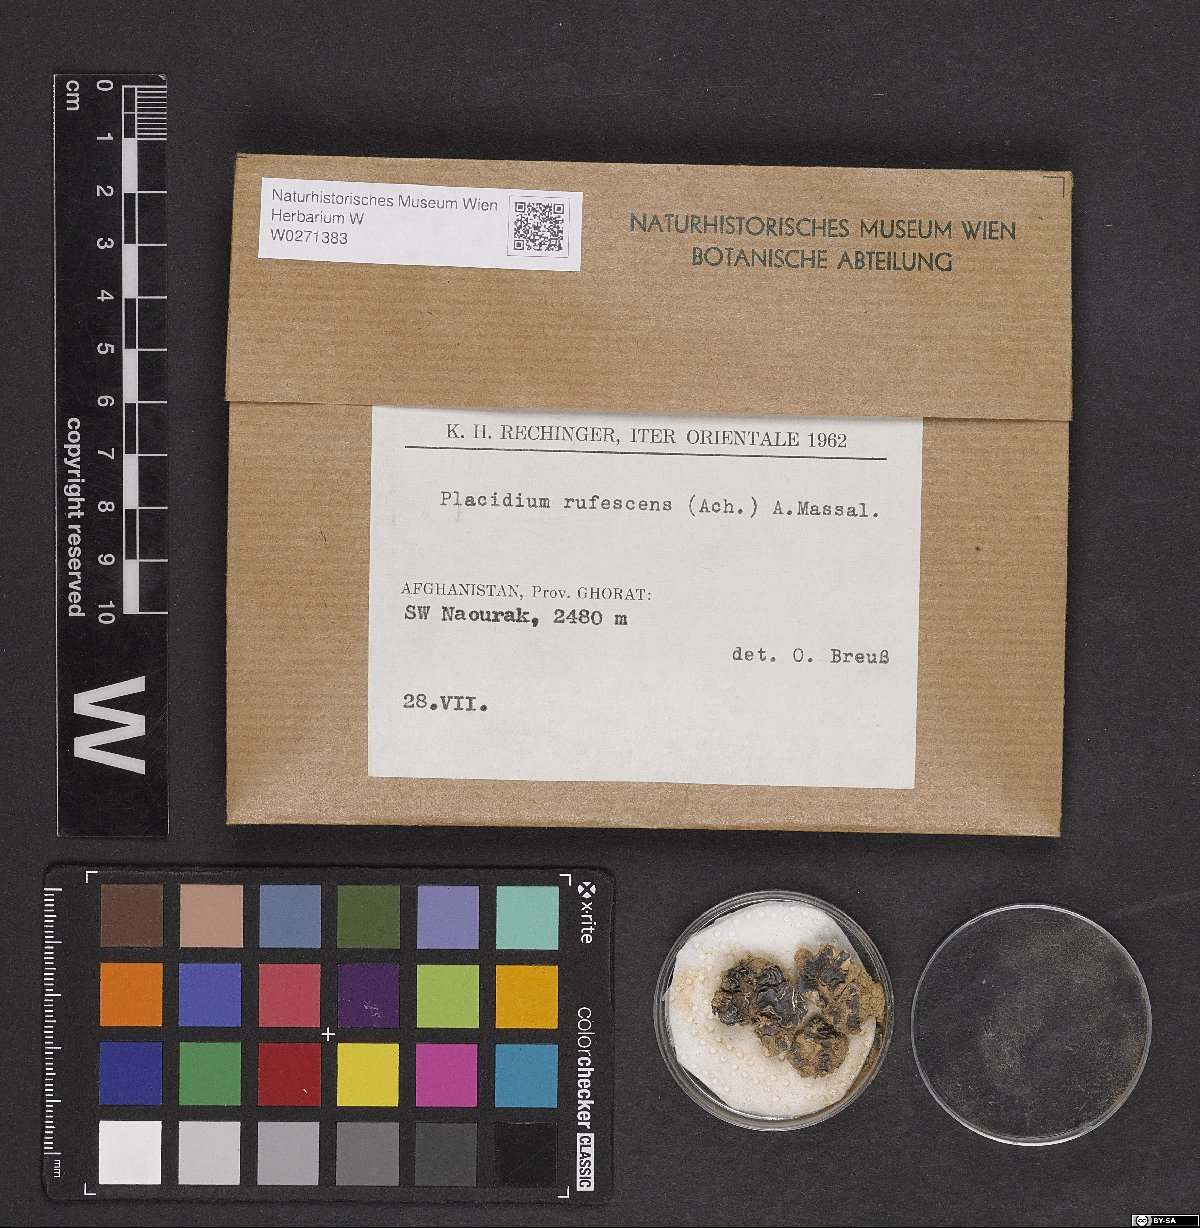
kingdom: Fungi
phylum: Ascomycota
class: Eurotiomycetes
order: Verrucariales
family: Verrucariaceae
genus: Catapyrenium
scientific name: Catapyrenium rufescens
